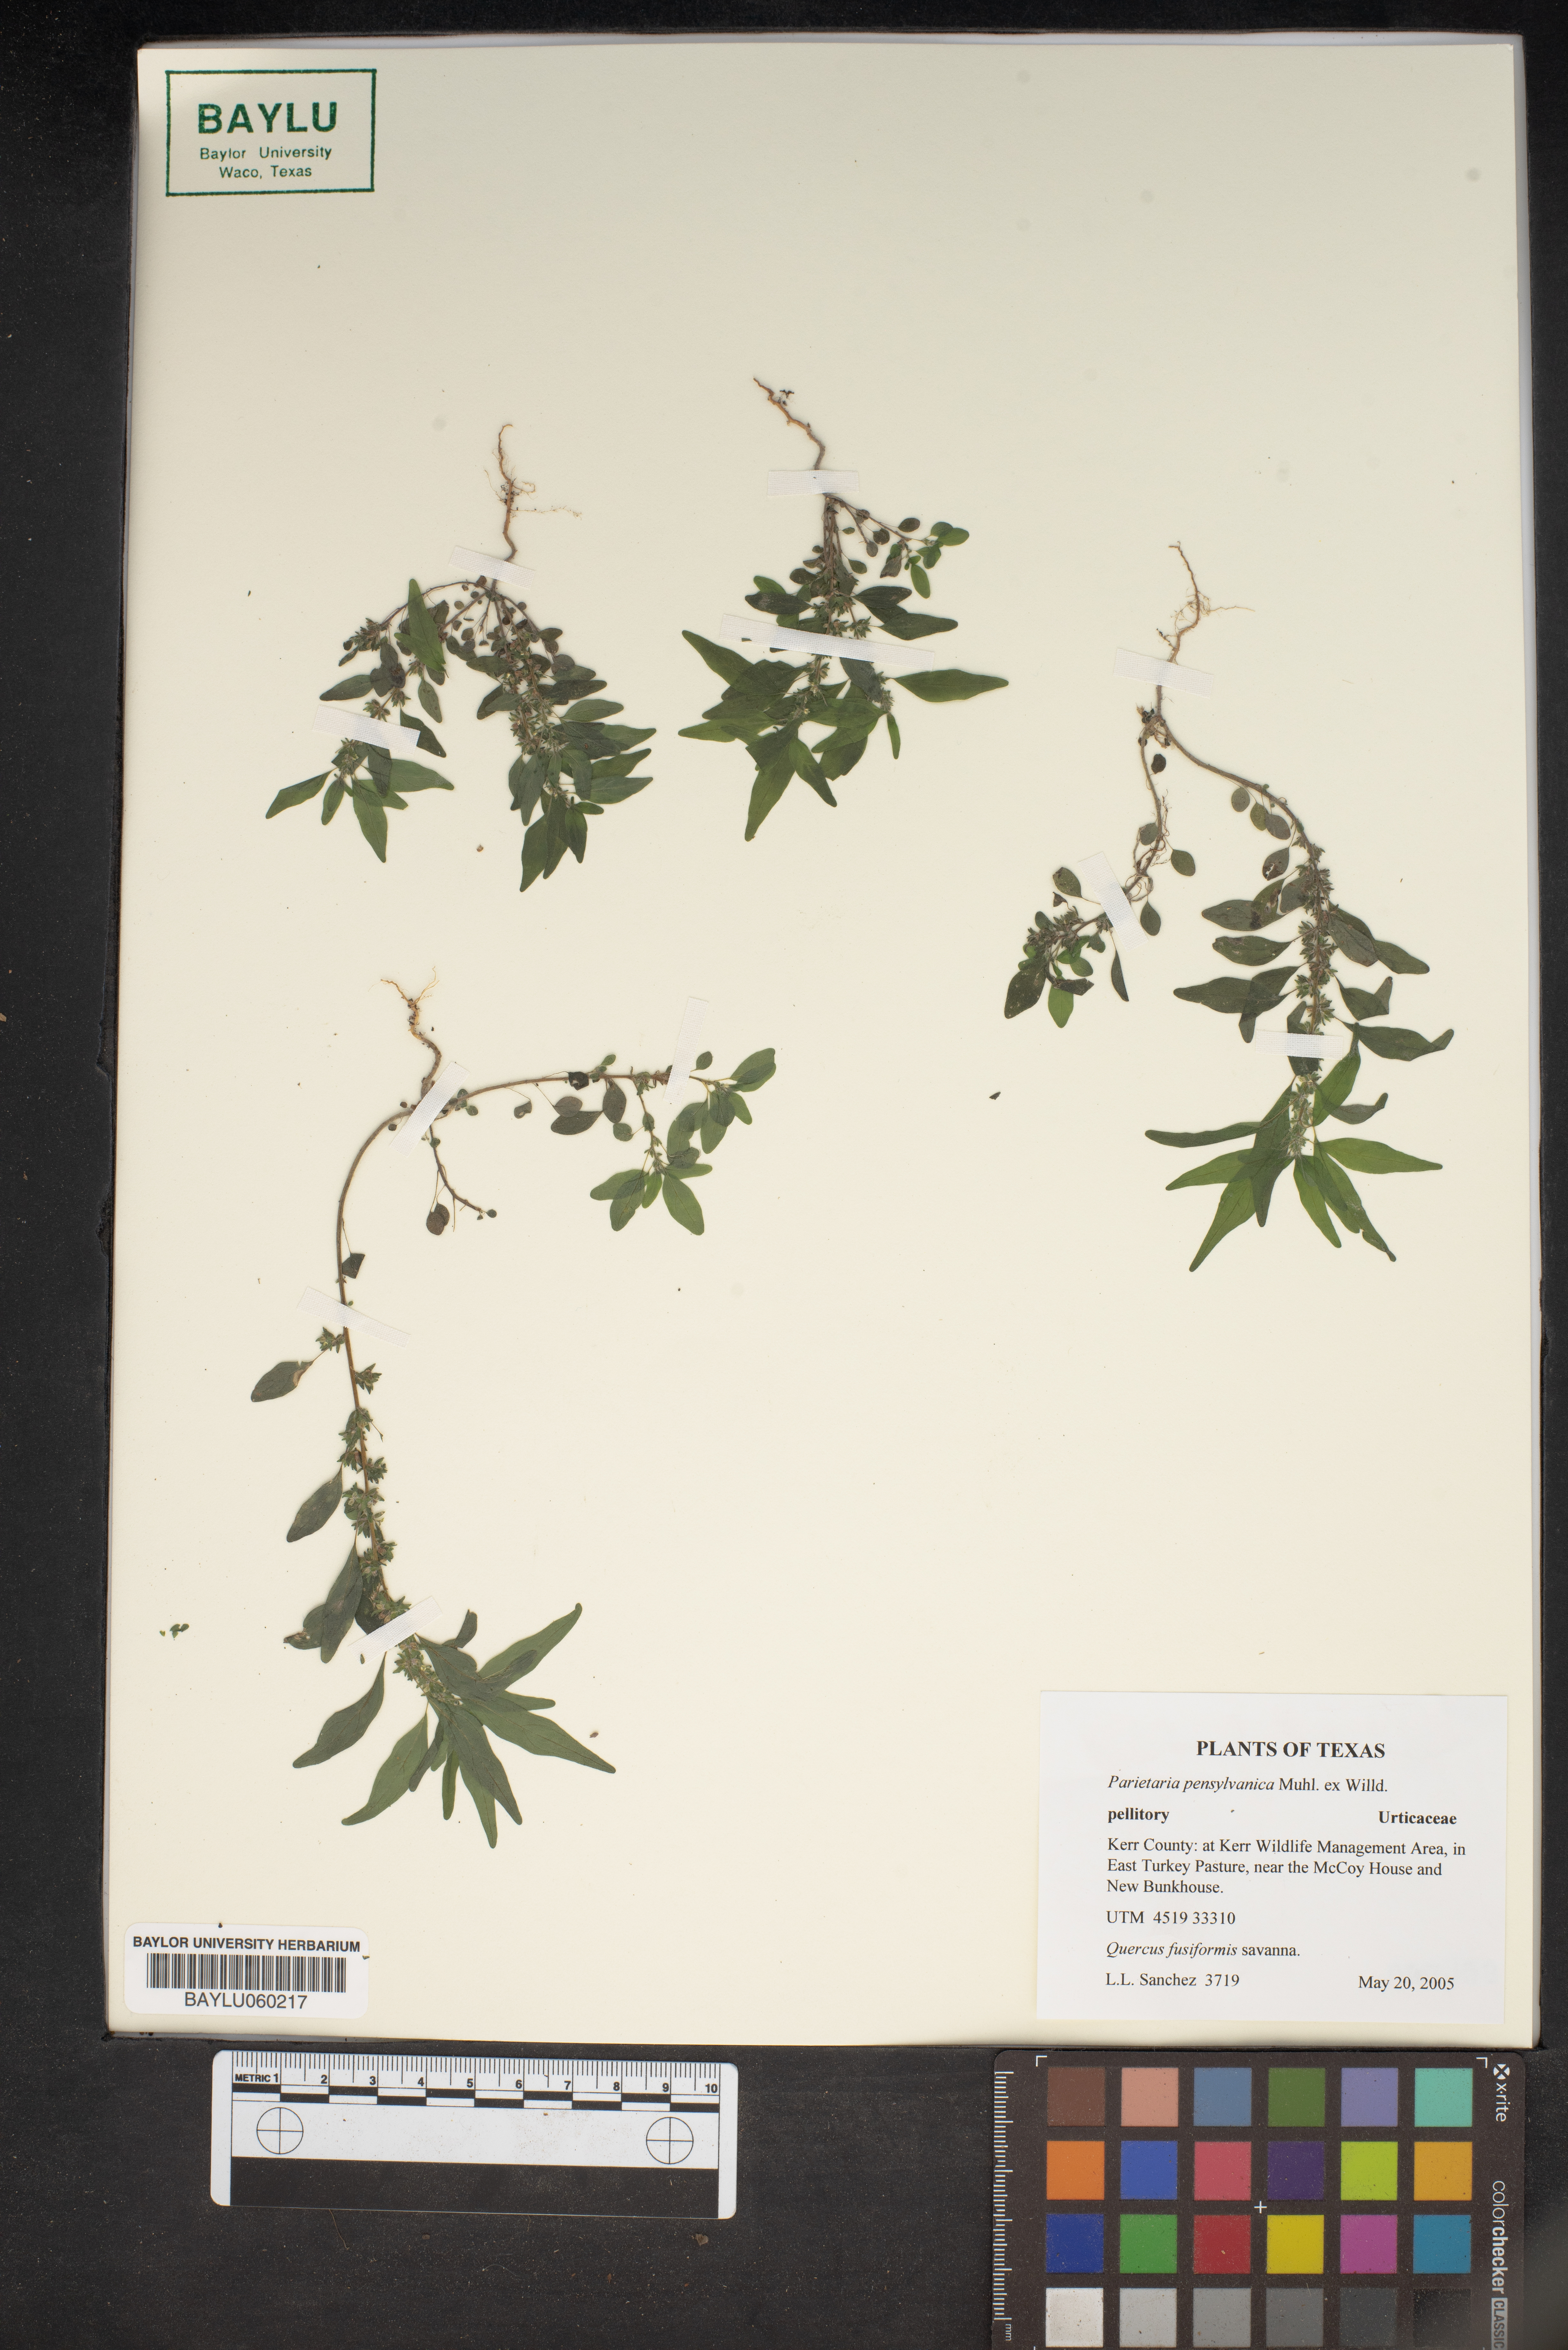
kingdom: Plantae
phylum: Tracheophyta
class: Magnoliopsida
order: Rosales
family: Urticaceae
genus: Parietaria
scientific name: Parietaria pensylvanica
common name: Pennsylvania pellitory
